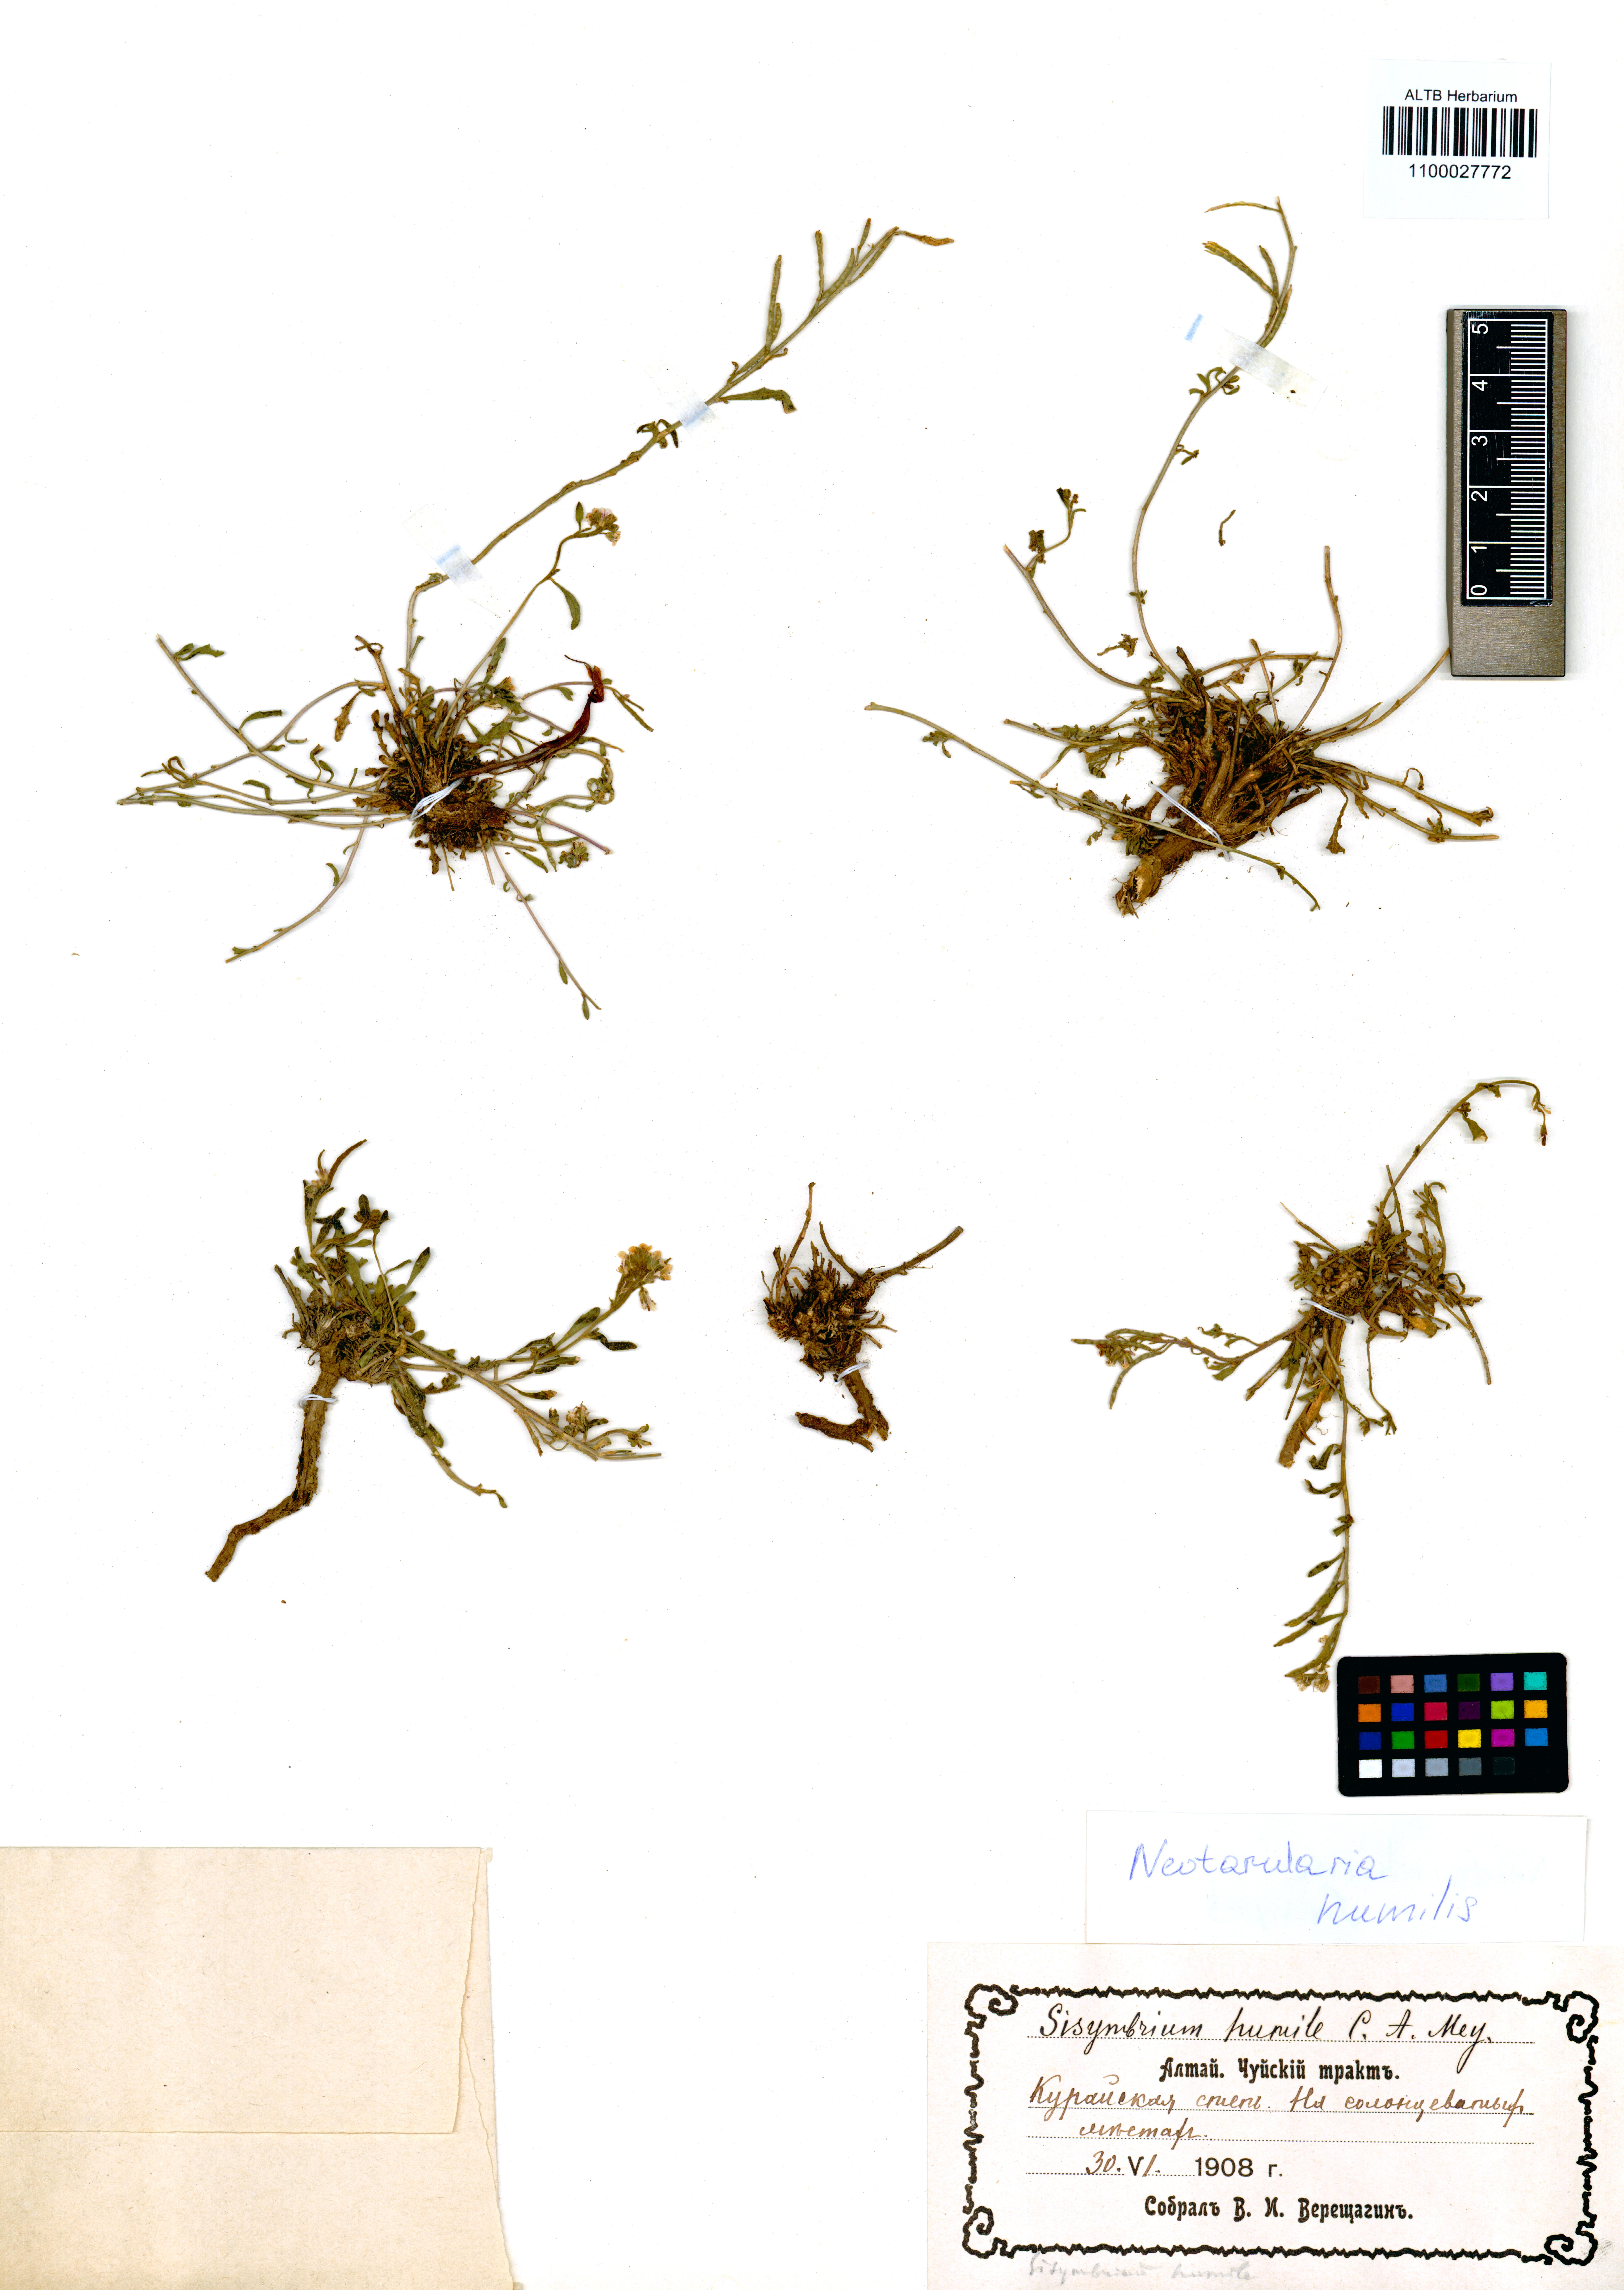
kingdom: Plantae
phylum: Tracheophyta
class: Magnoliopsida
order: Brassicales
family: Brassicaceae
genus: Braya
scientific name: Braya humilis
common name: Alpine northern rockcress
